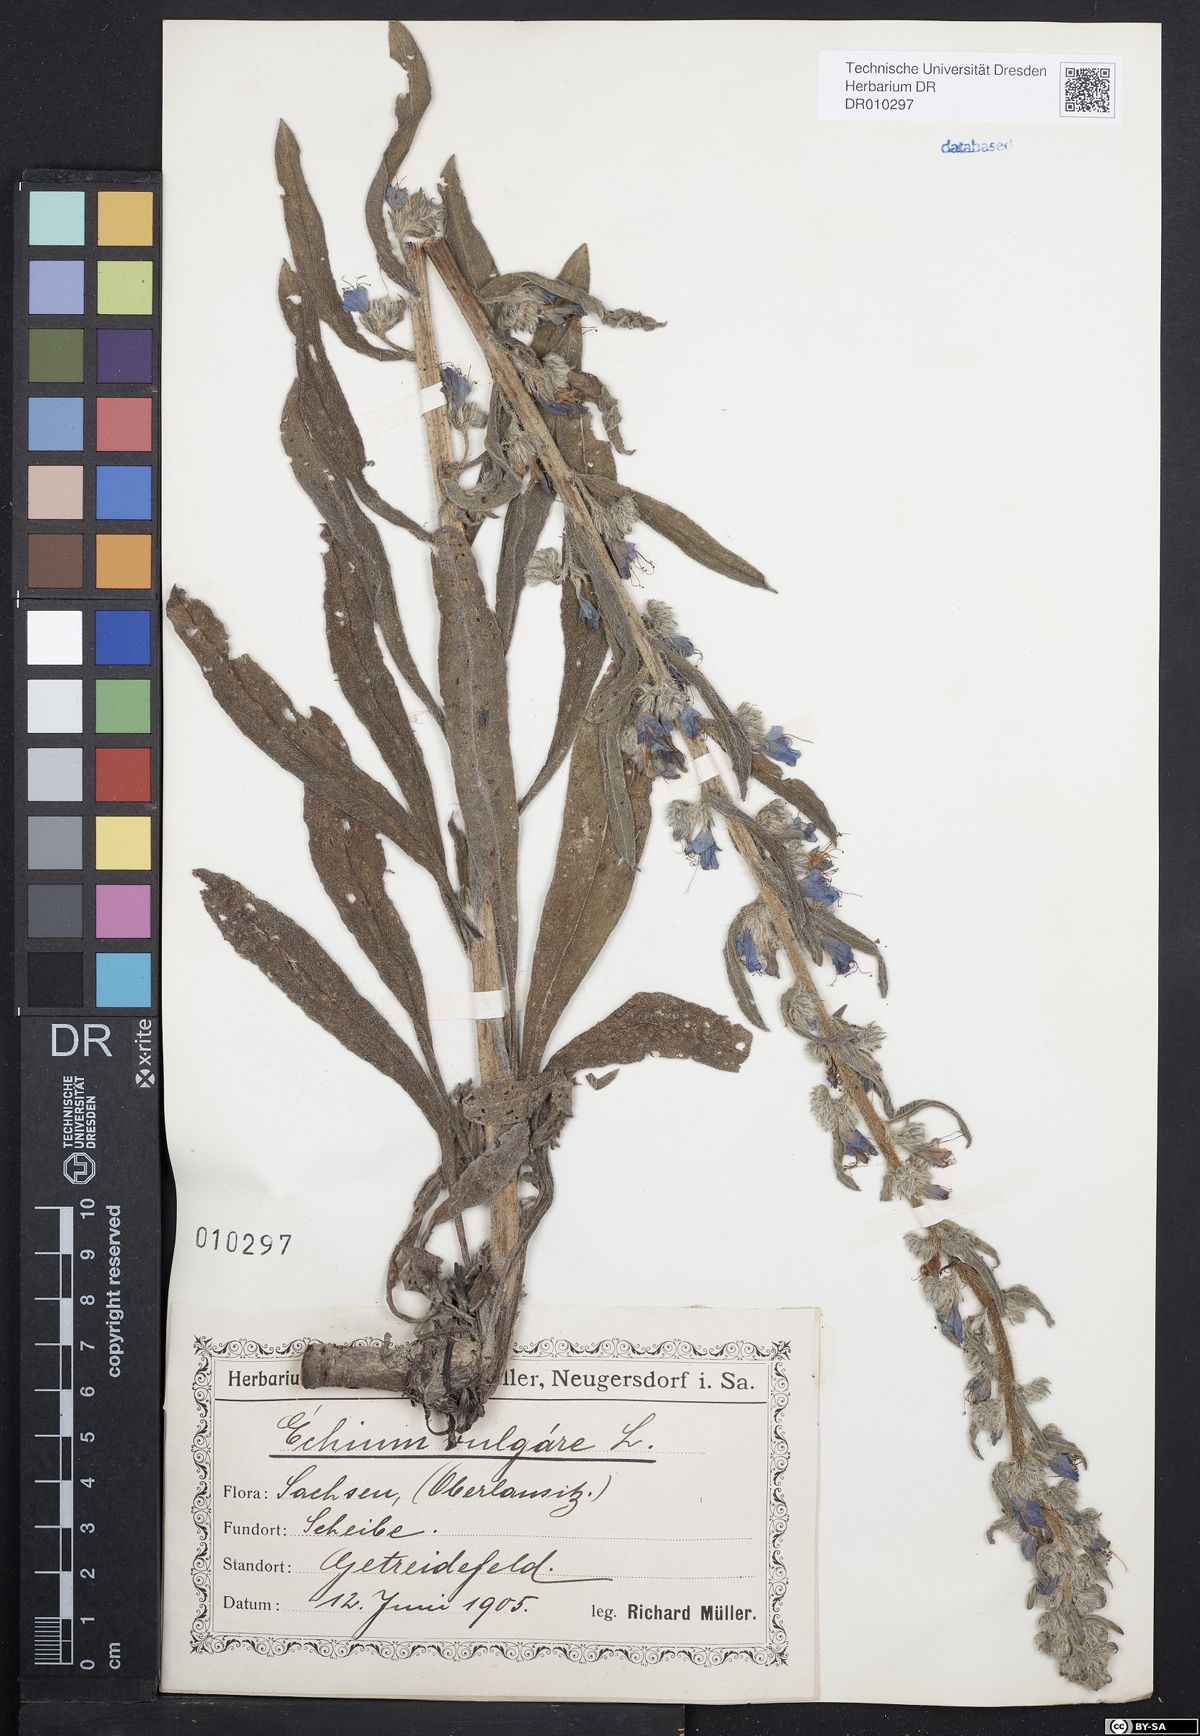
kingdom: Plantae
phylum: Tracheophyta
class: Magnoliopsida
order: Boraginales
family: Boraginaceae
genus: Echium
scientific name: Echium vulgare
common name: Common viper's bugloss
